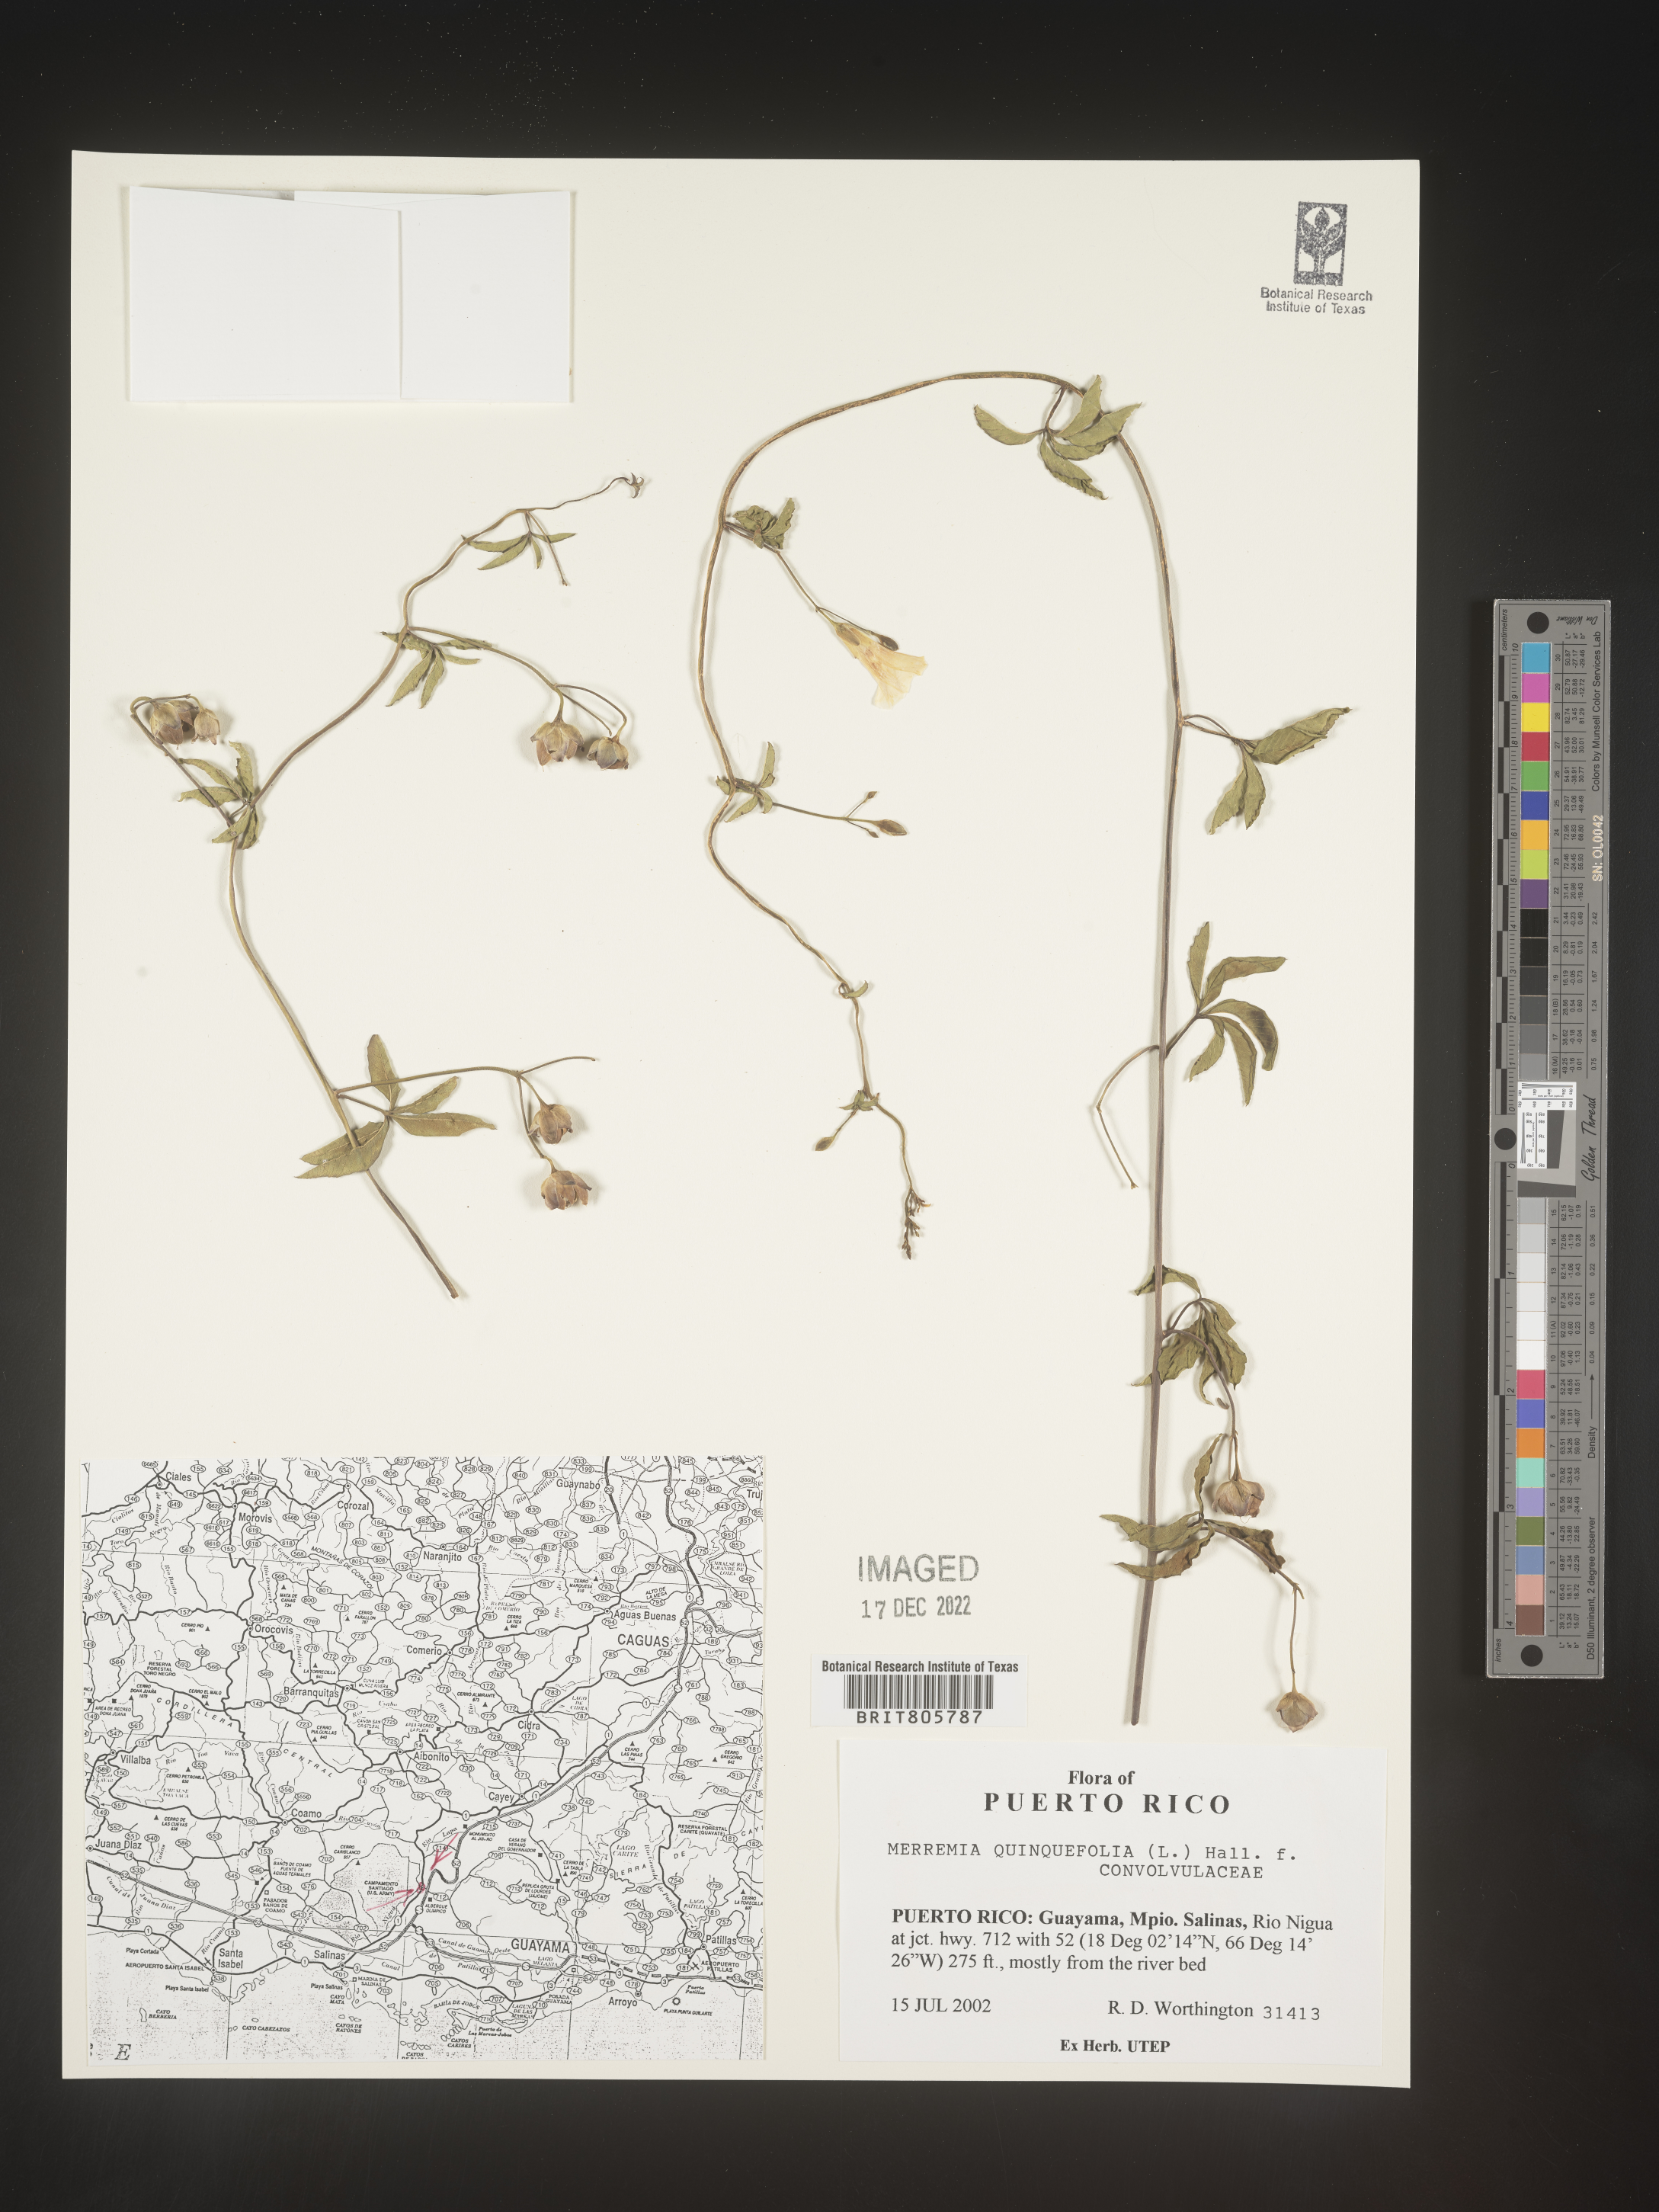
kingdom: Plantae
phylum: Tracheophyta
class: Magnoliopsida
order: Solanales
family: Convolvulaceae
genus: Merremia
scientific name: Merremia
